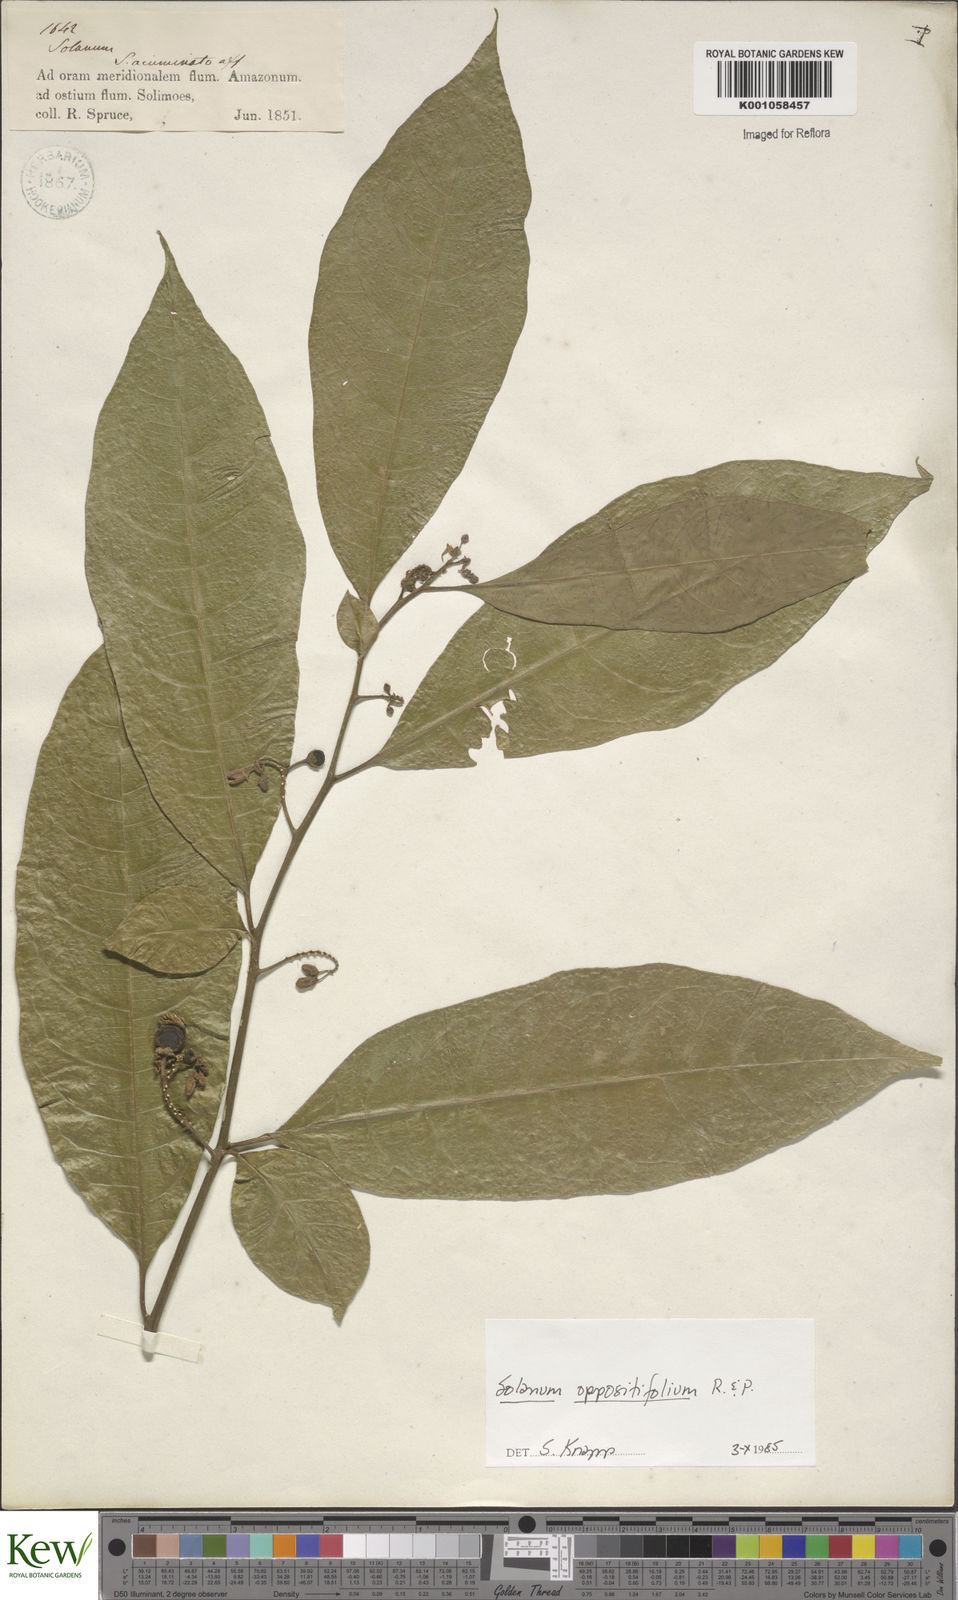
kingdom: Plantae
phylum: Tracheophyta
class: Magnoliopsida
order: Solanales
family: Solanaceae
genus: Solanum
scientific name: Solanum oppositifolium
